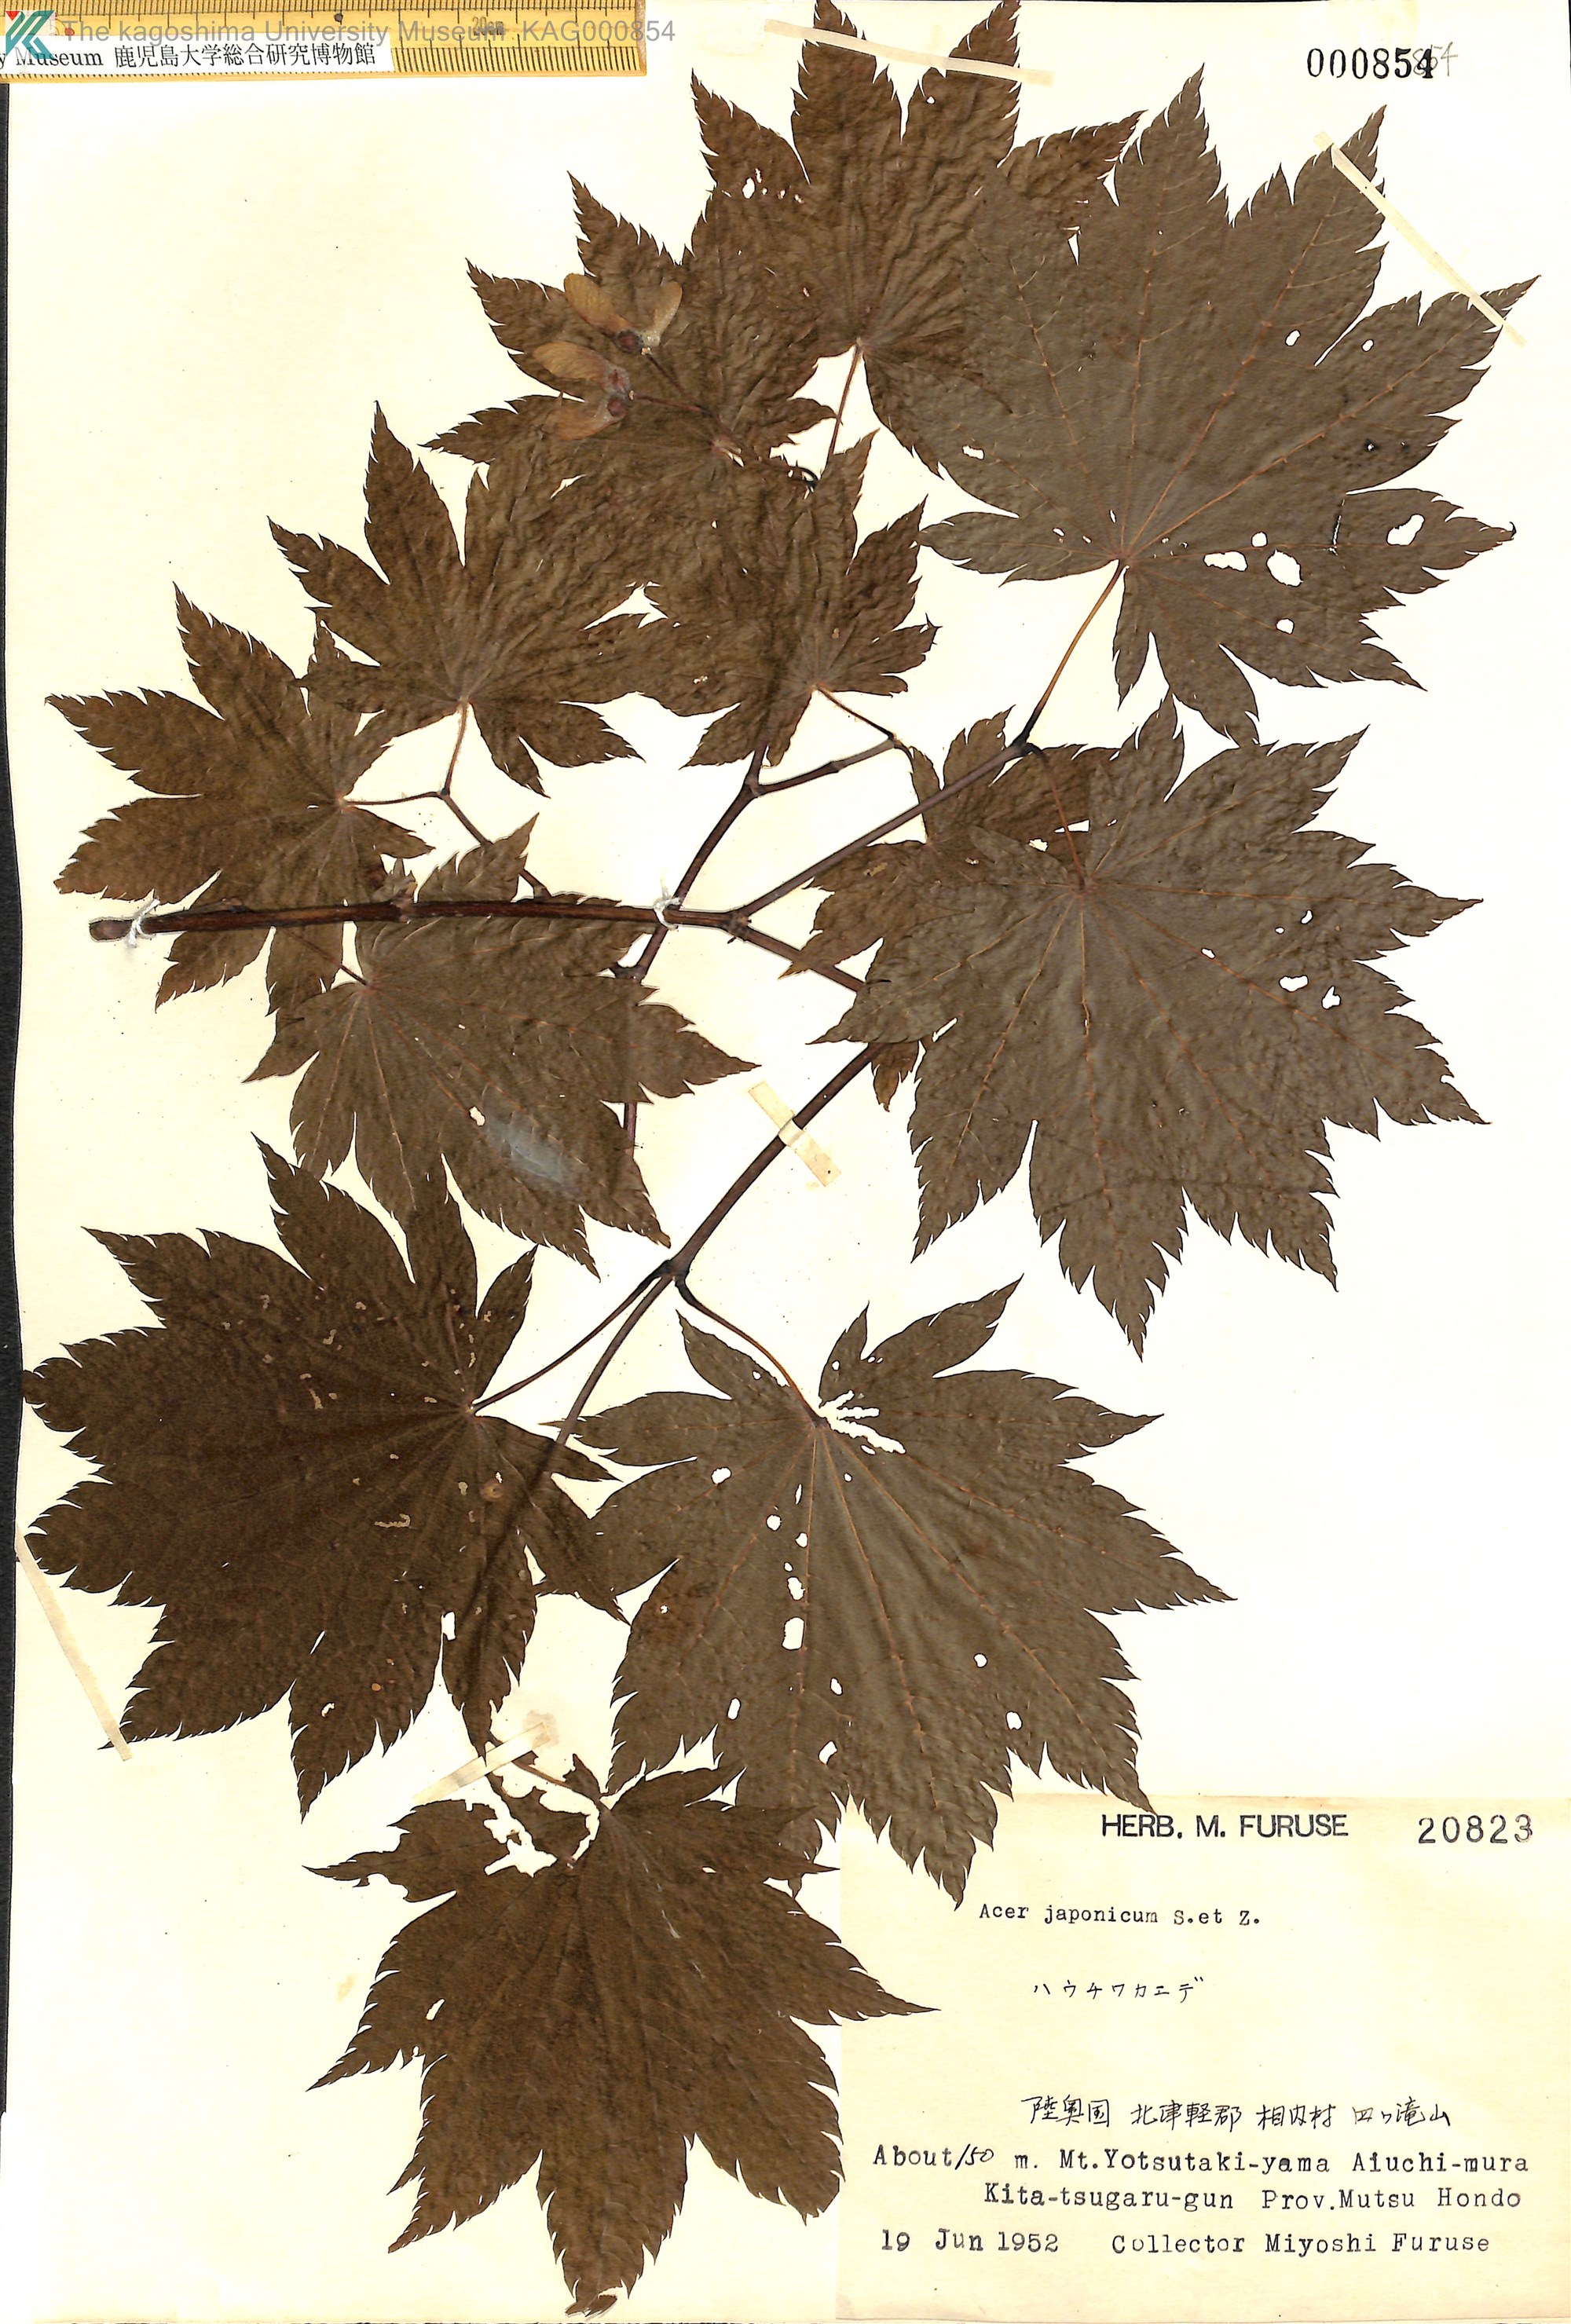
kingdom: Plantae
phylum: Tracheophyta
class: Magnoliopsida
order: Sapindales
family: Sapindaceae
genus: Acer
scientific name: Acer japonicum
